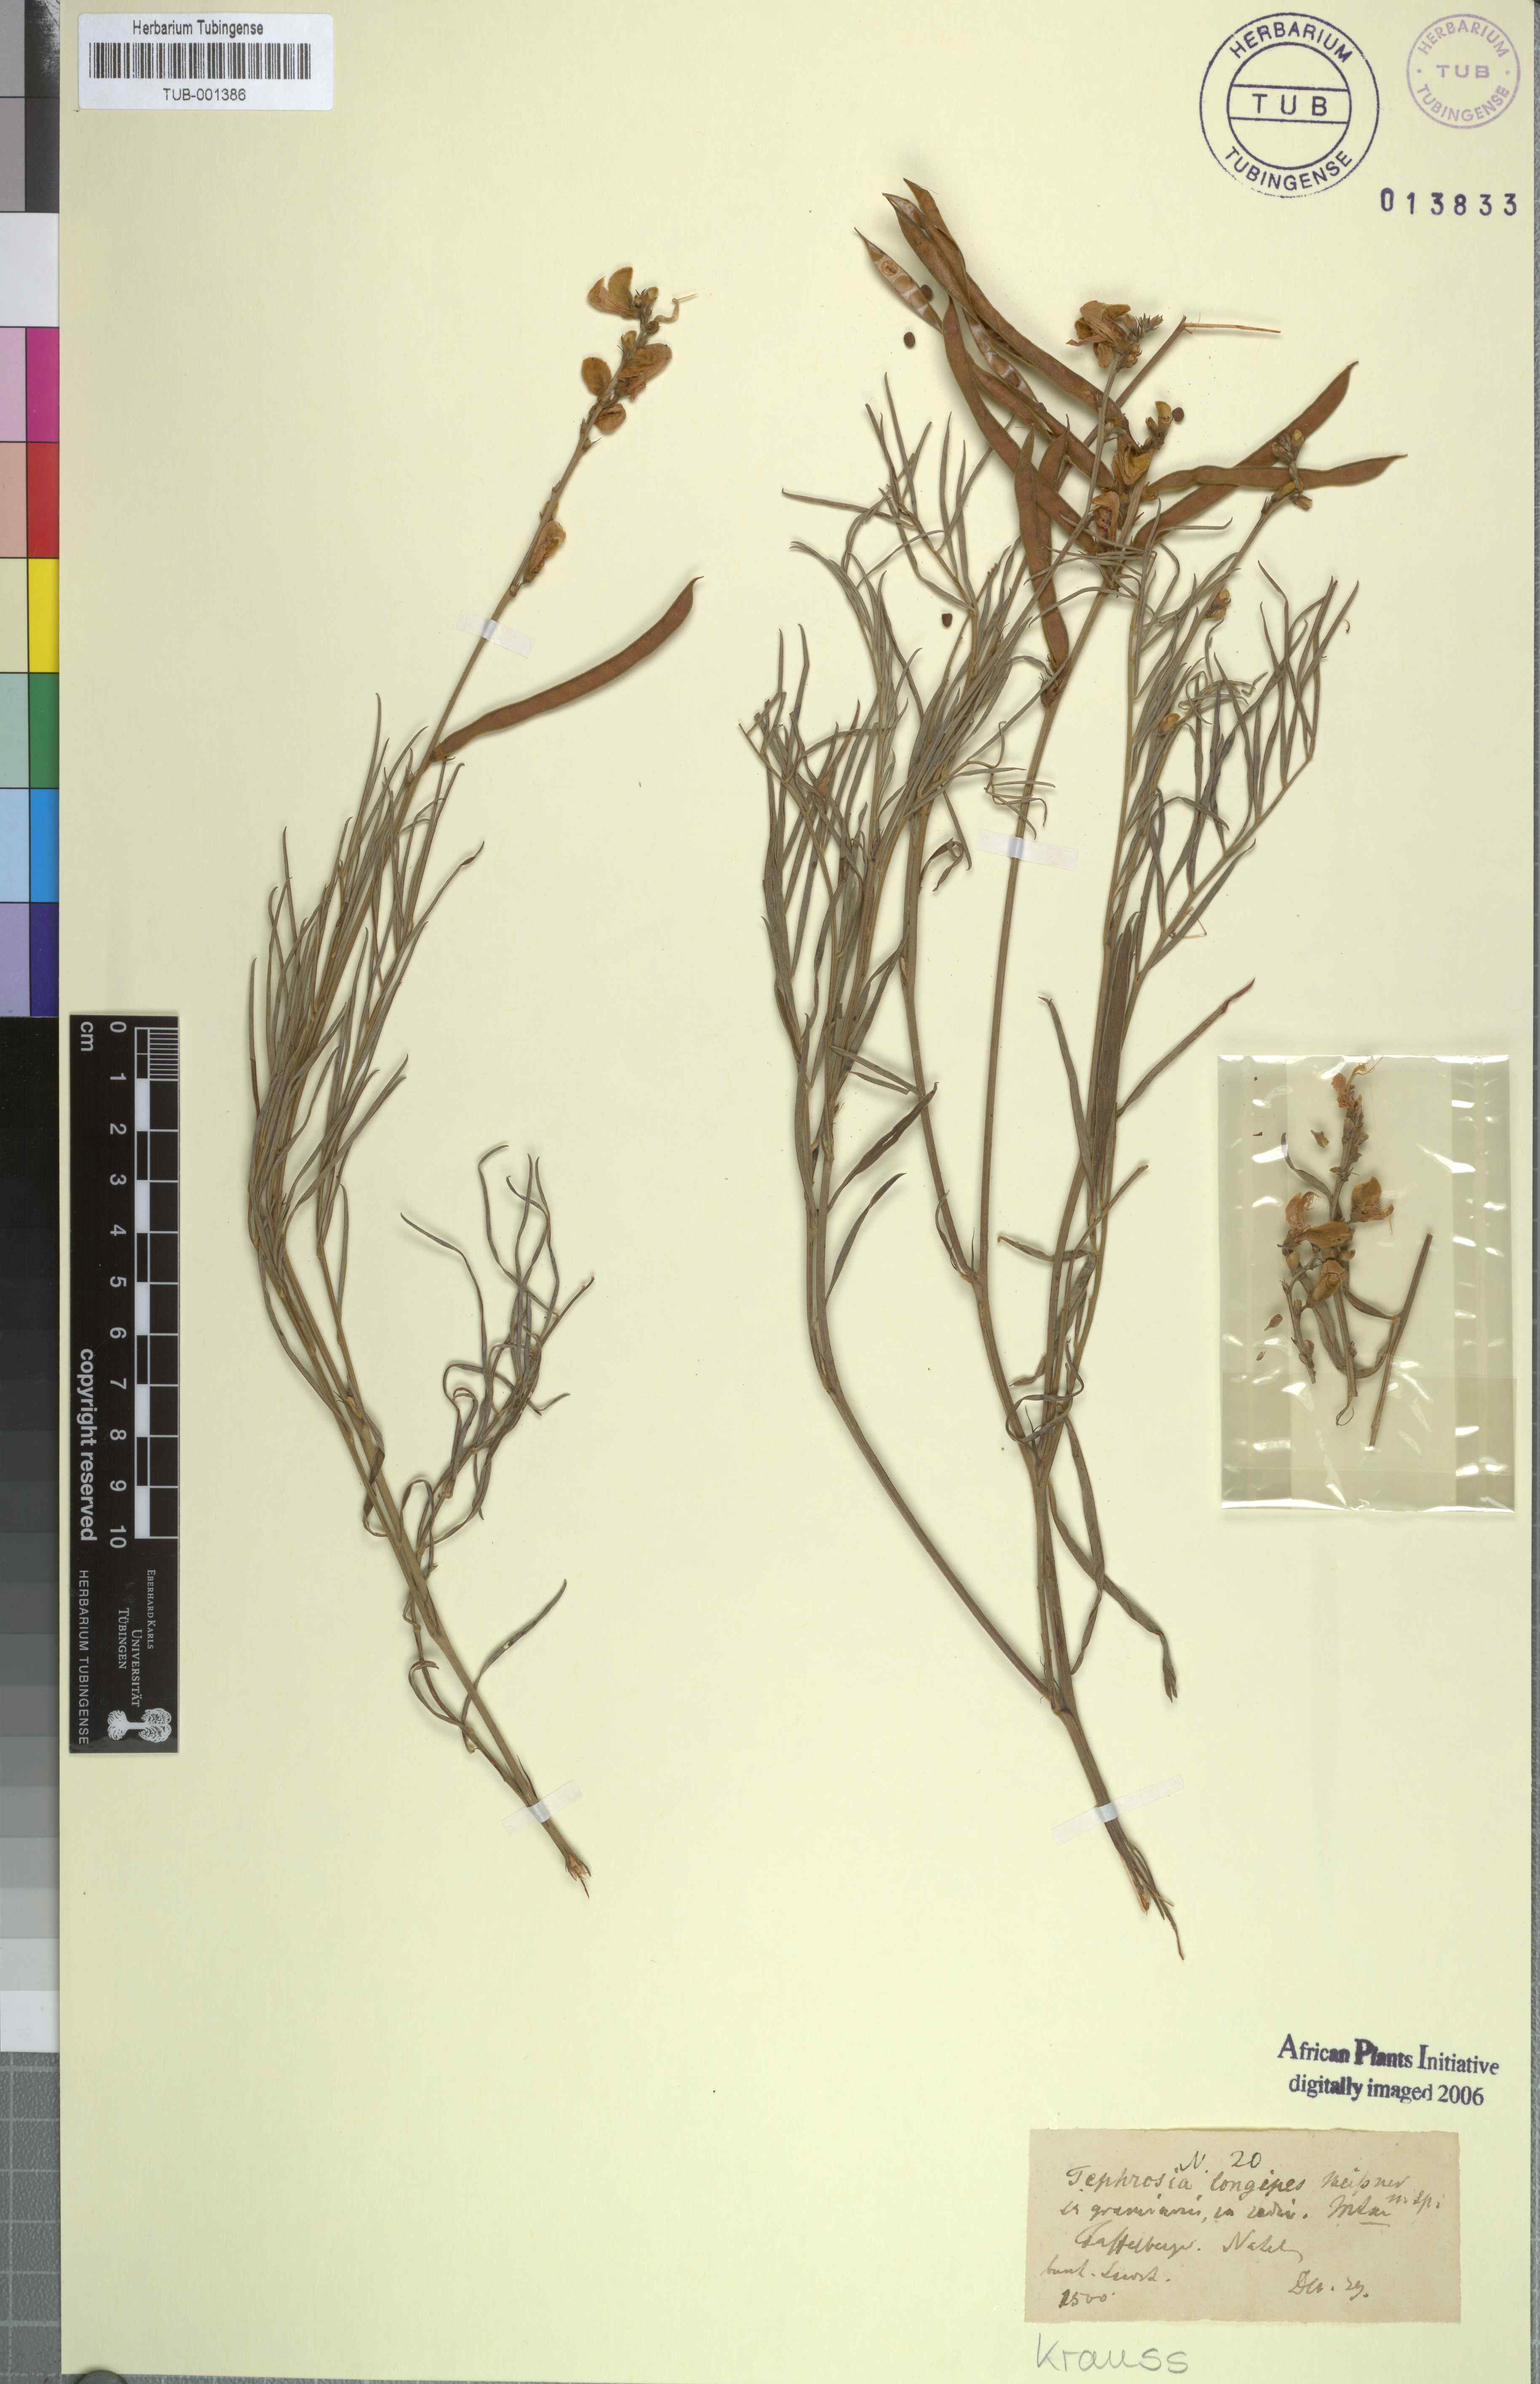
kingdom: Plantae
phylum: Tracheophyta
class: Magnoliopsida
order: Fabales
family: Fabaceae
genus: Tephrosia
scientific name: Tephrosia longipes
